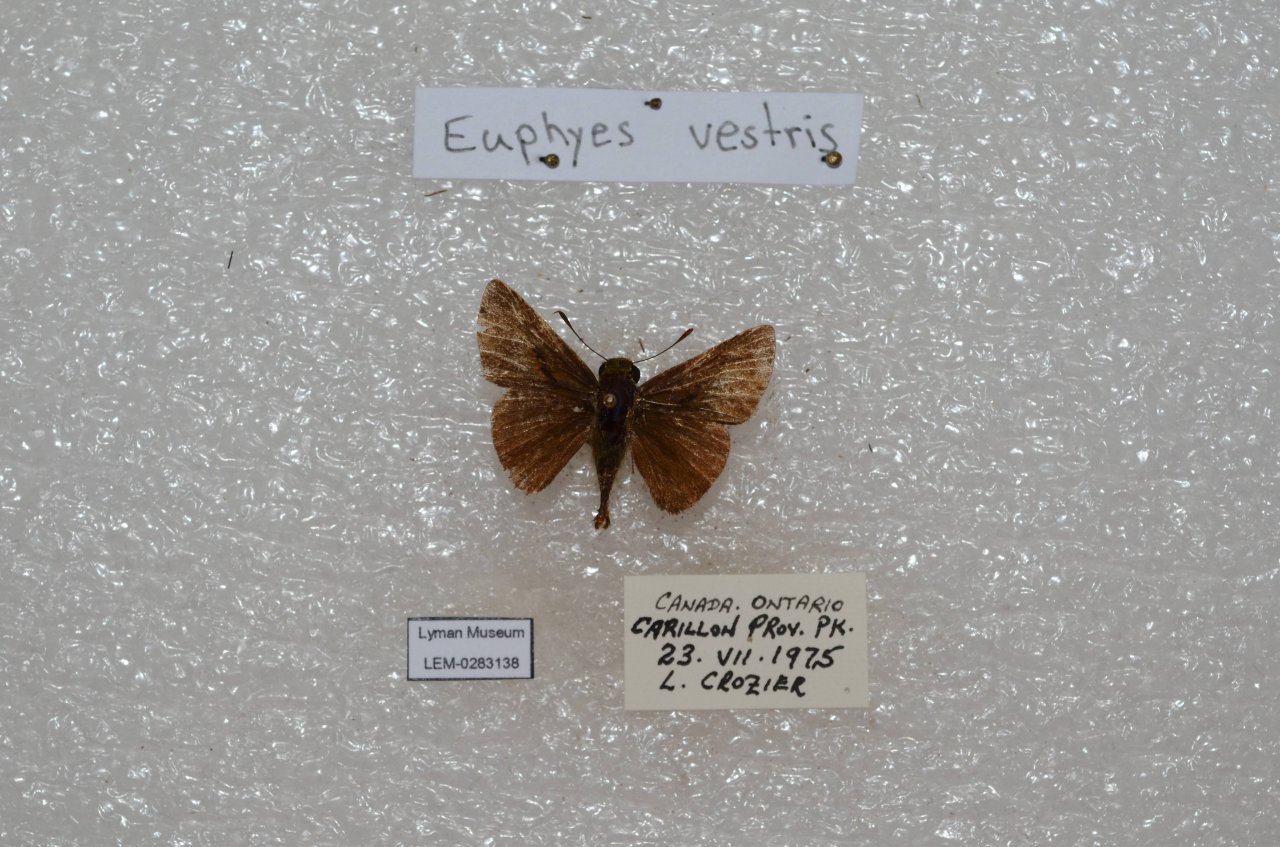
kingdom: Animalia
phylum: Arthropoda
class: Insecta
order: Lepidoptera
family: Hesperiidae
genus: Euphyes
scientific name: Euphyes vestris
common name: Dun Skipper
